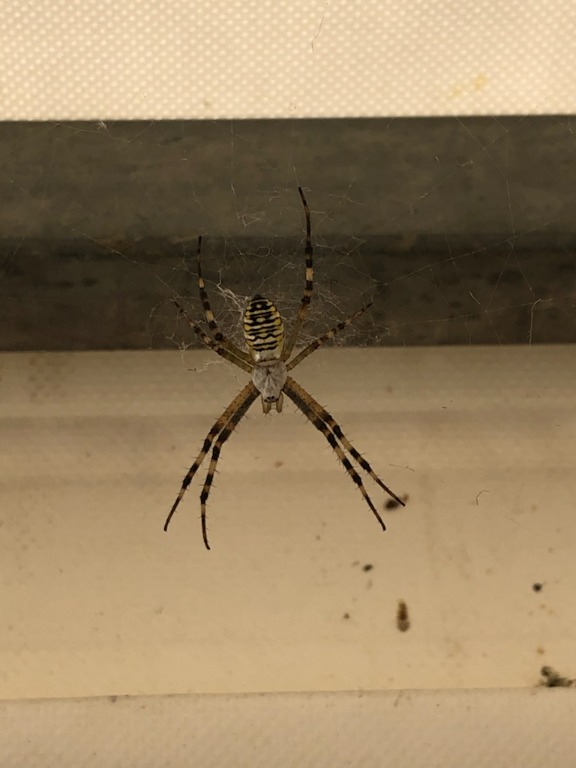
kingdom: Animalia
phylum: Arthropoda
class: Arachnida
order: Araneae
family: Araneidae
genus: Argiope
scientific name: Argiope bruennichi
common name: Hvepseedderkop
